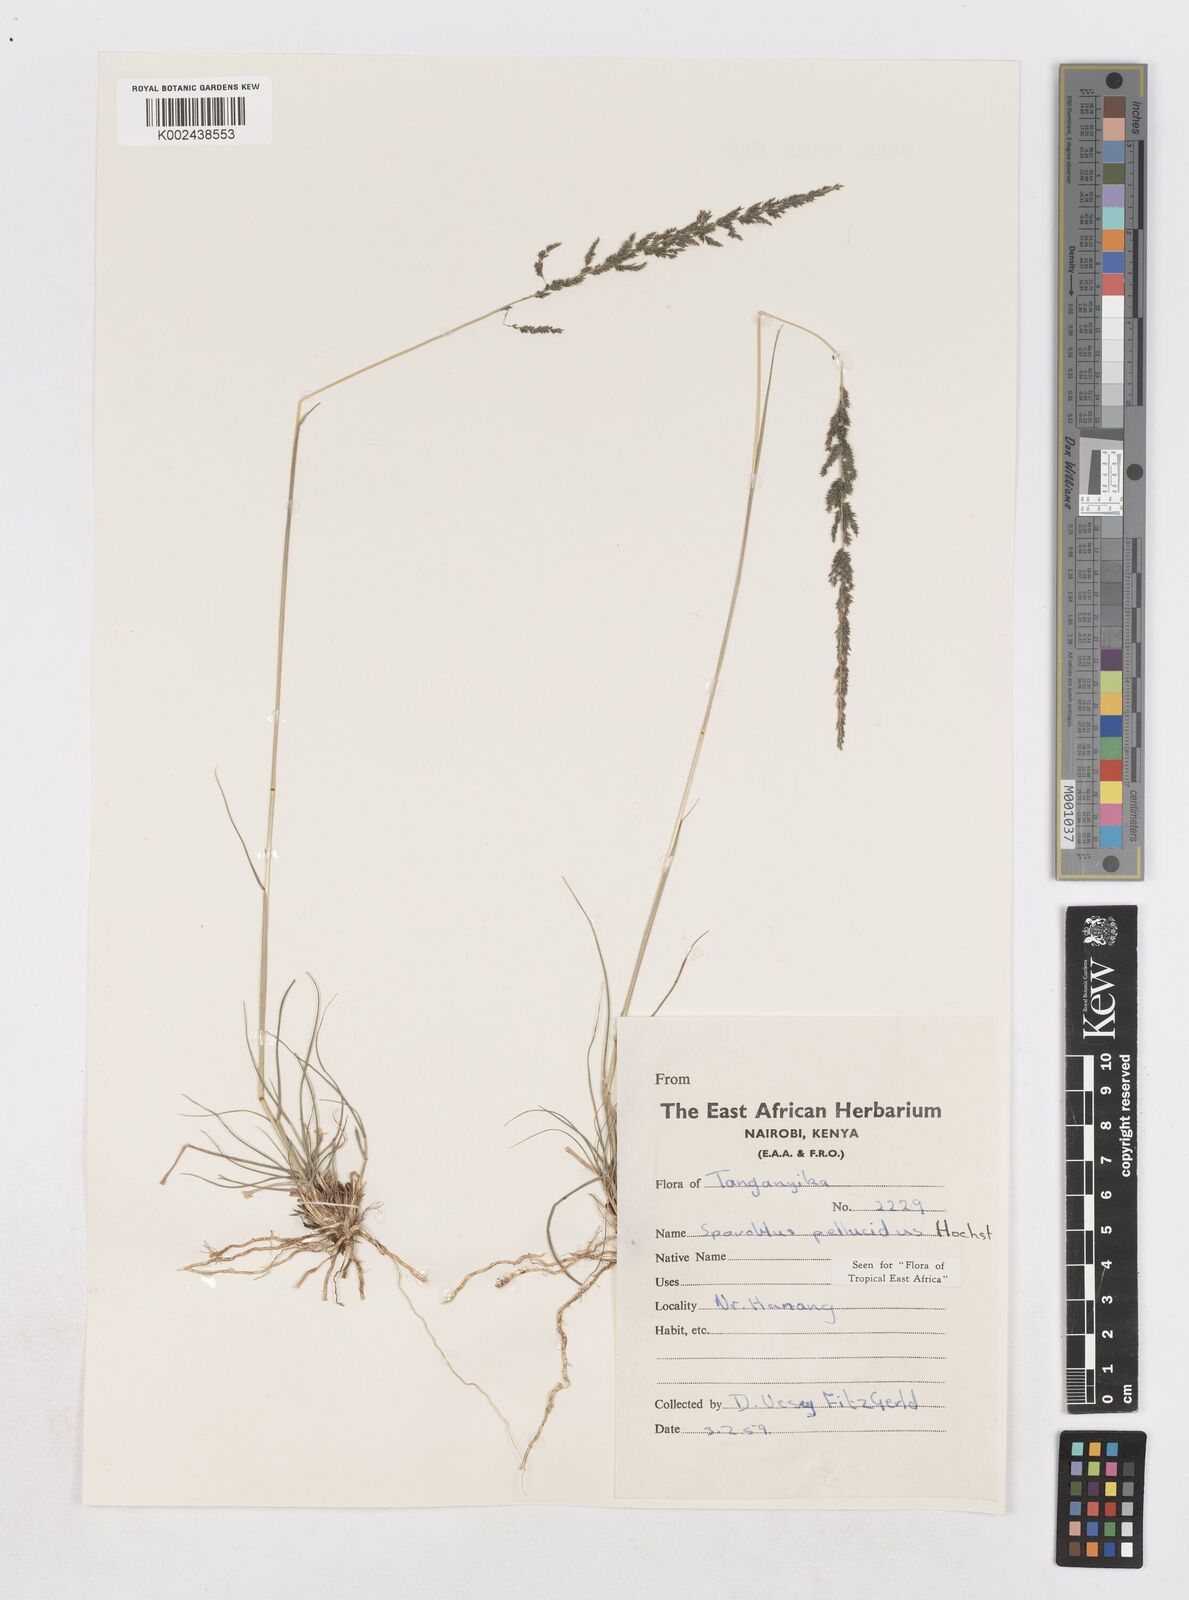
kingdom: Plantae
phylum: Tracheophyta
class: Liliopsida
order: Poales
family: Poaceae
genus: Sporobolus
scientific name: Sporobolus pellucidus
